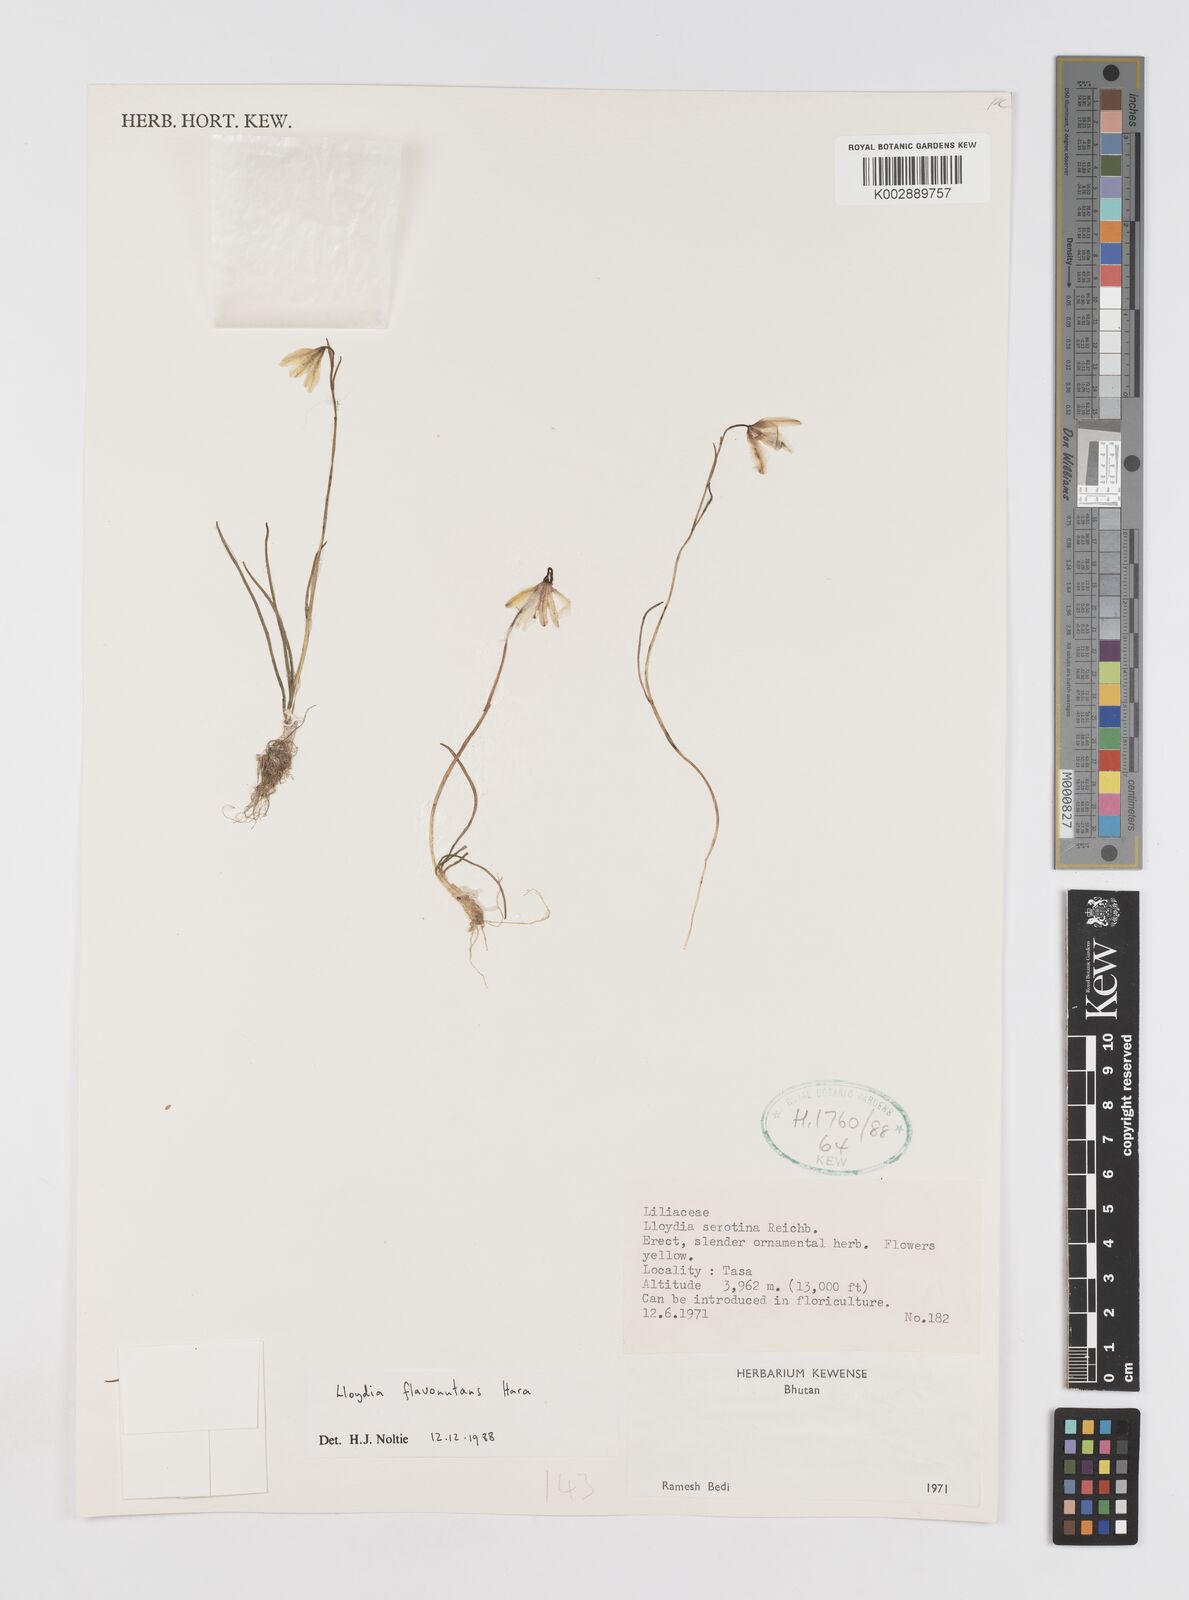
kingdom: Plantae
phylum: Tracheophyta
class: Liliopsida
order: Liliales
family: Liliaceae
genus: Gagea
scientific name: Gagea flavonutans
